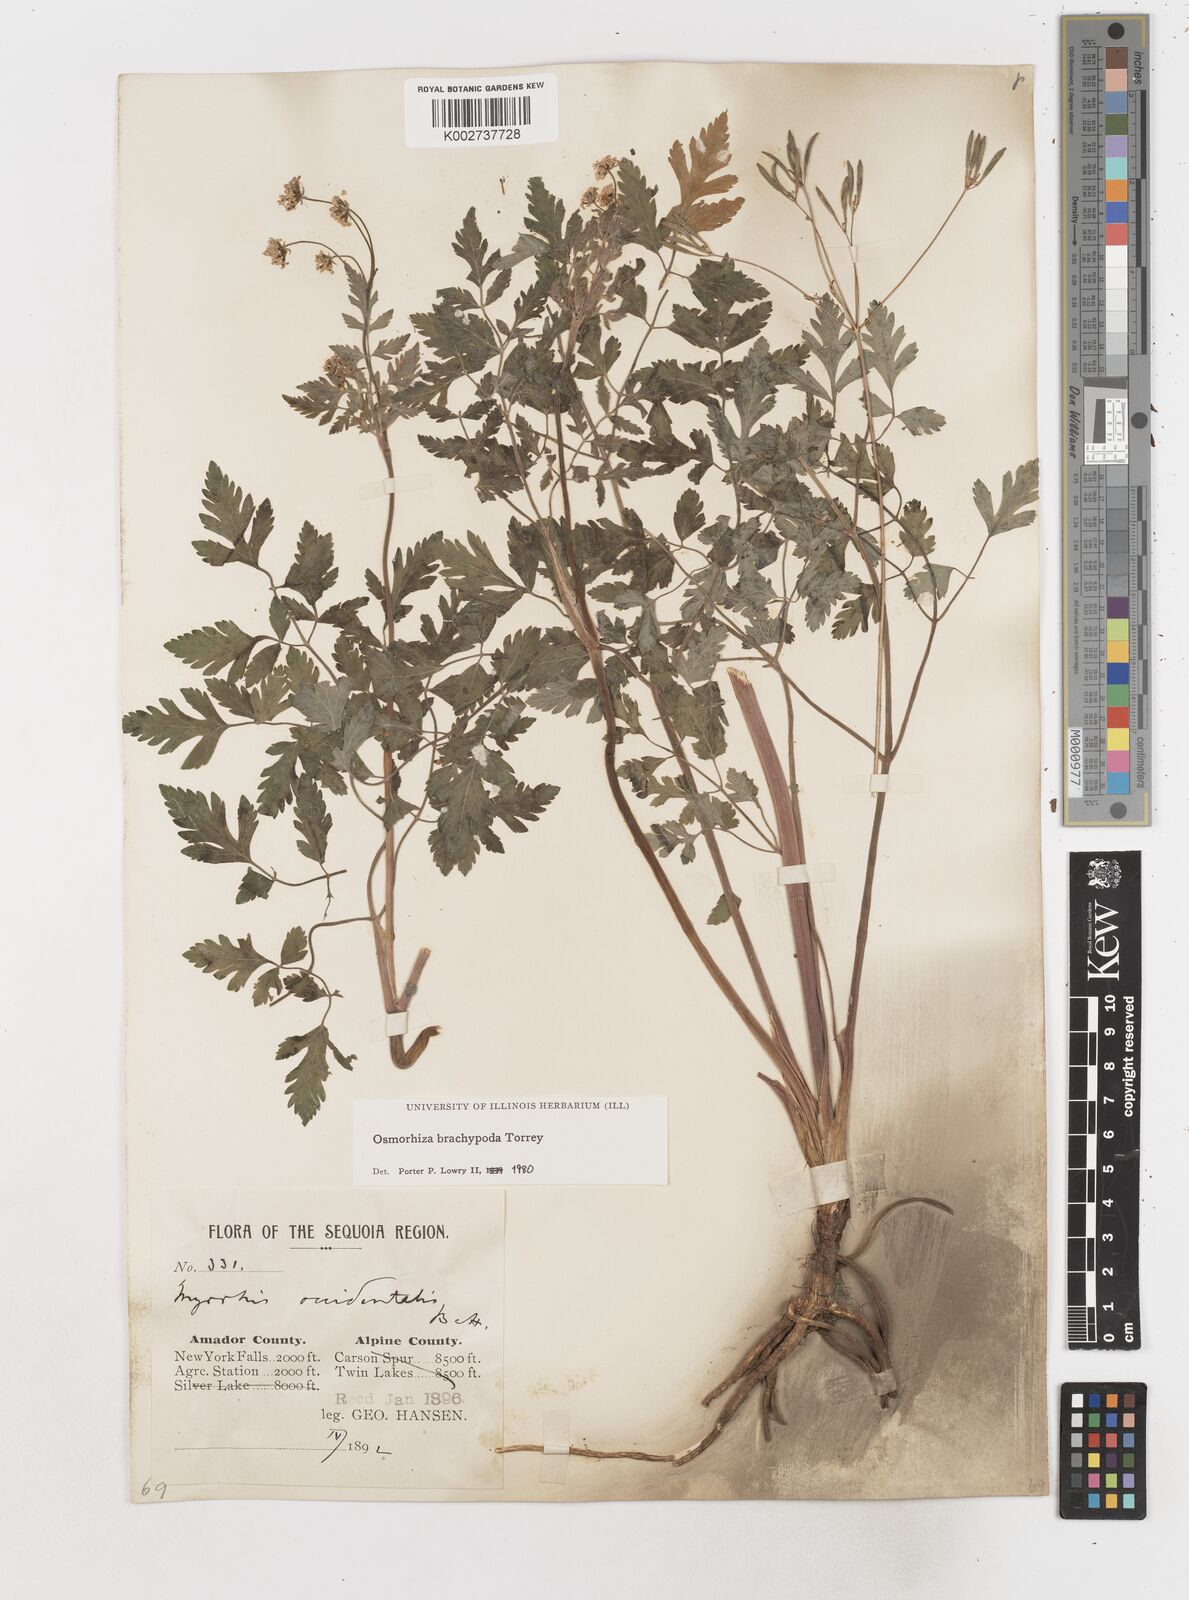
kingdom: Plantae
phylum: Tracheophyta
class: Magnoliopsida
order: Apiales
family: Apiaceae
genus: Osmorhiza
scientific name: Osmorhiza brachypoda
